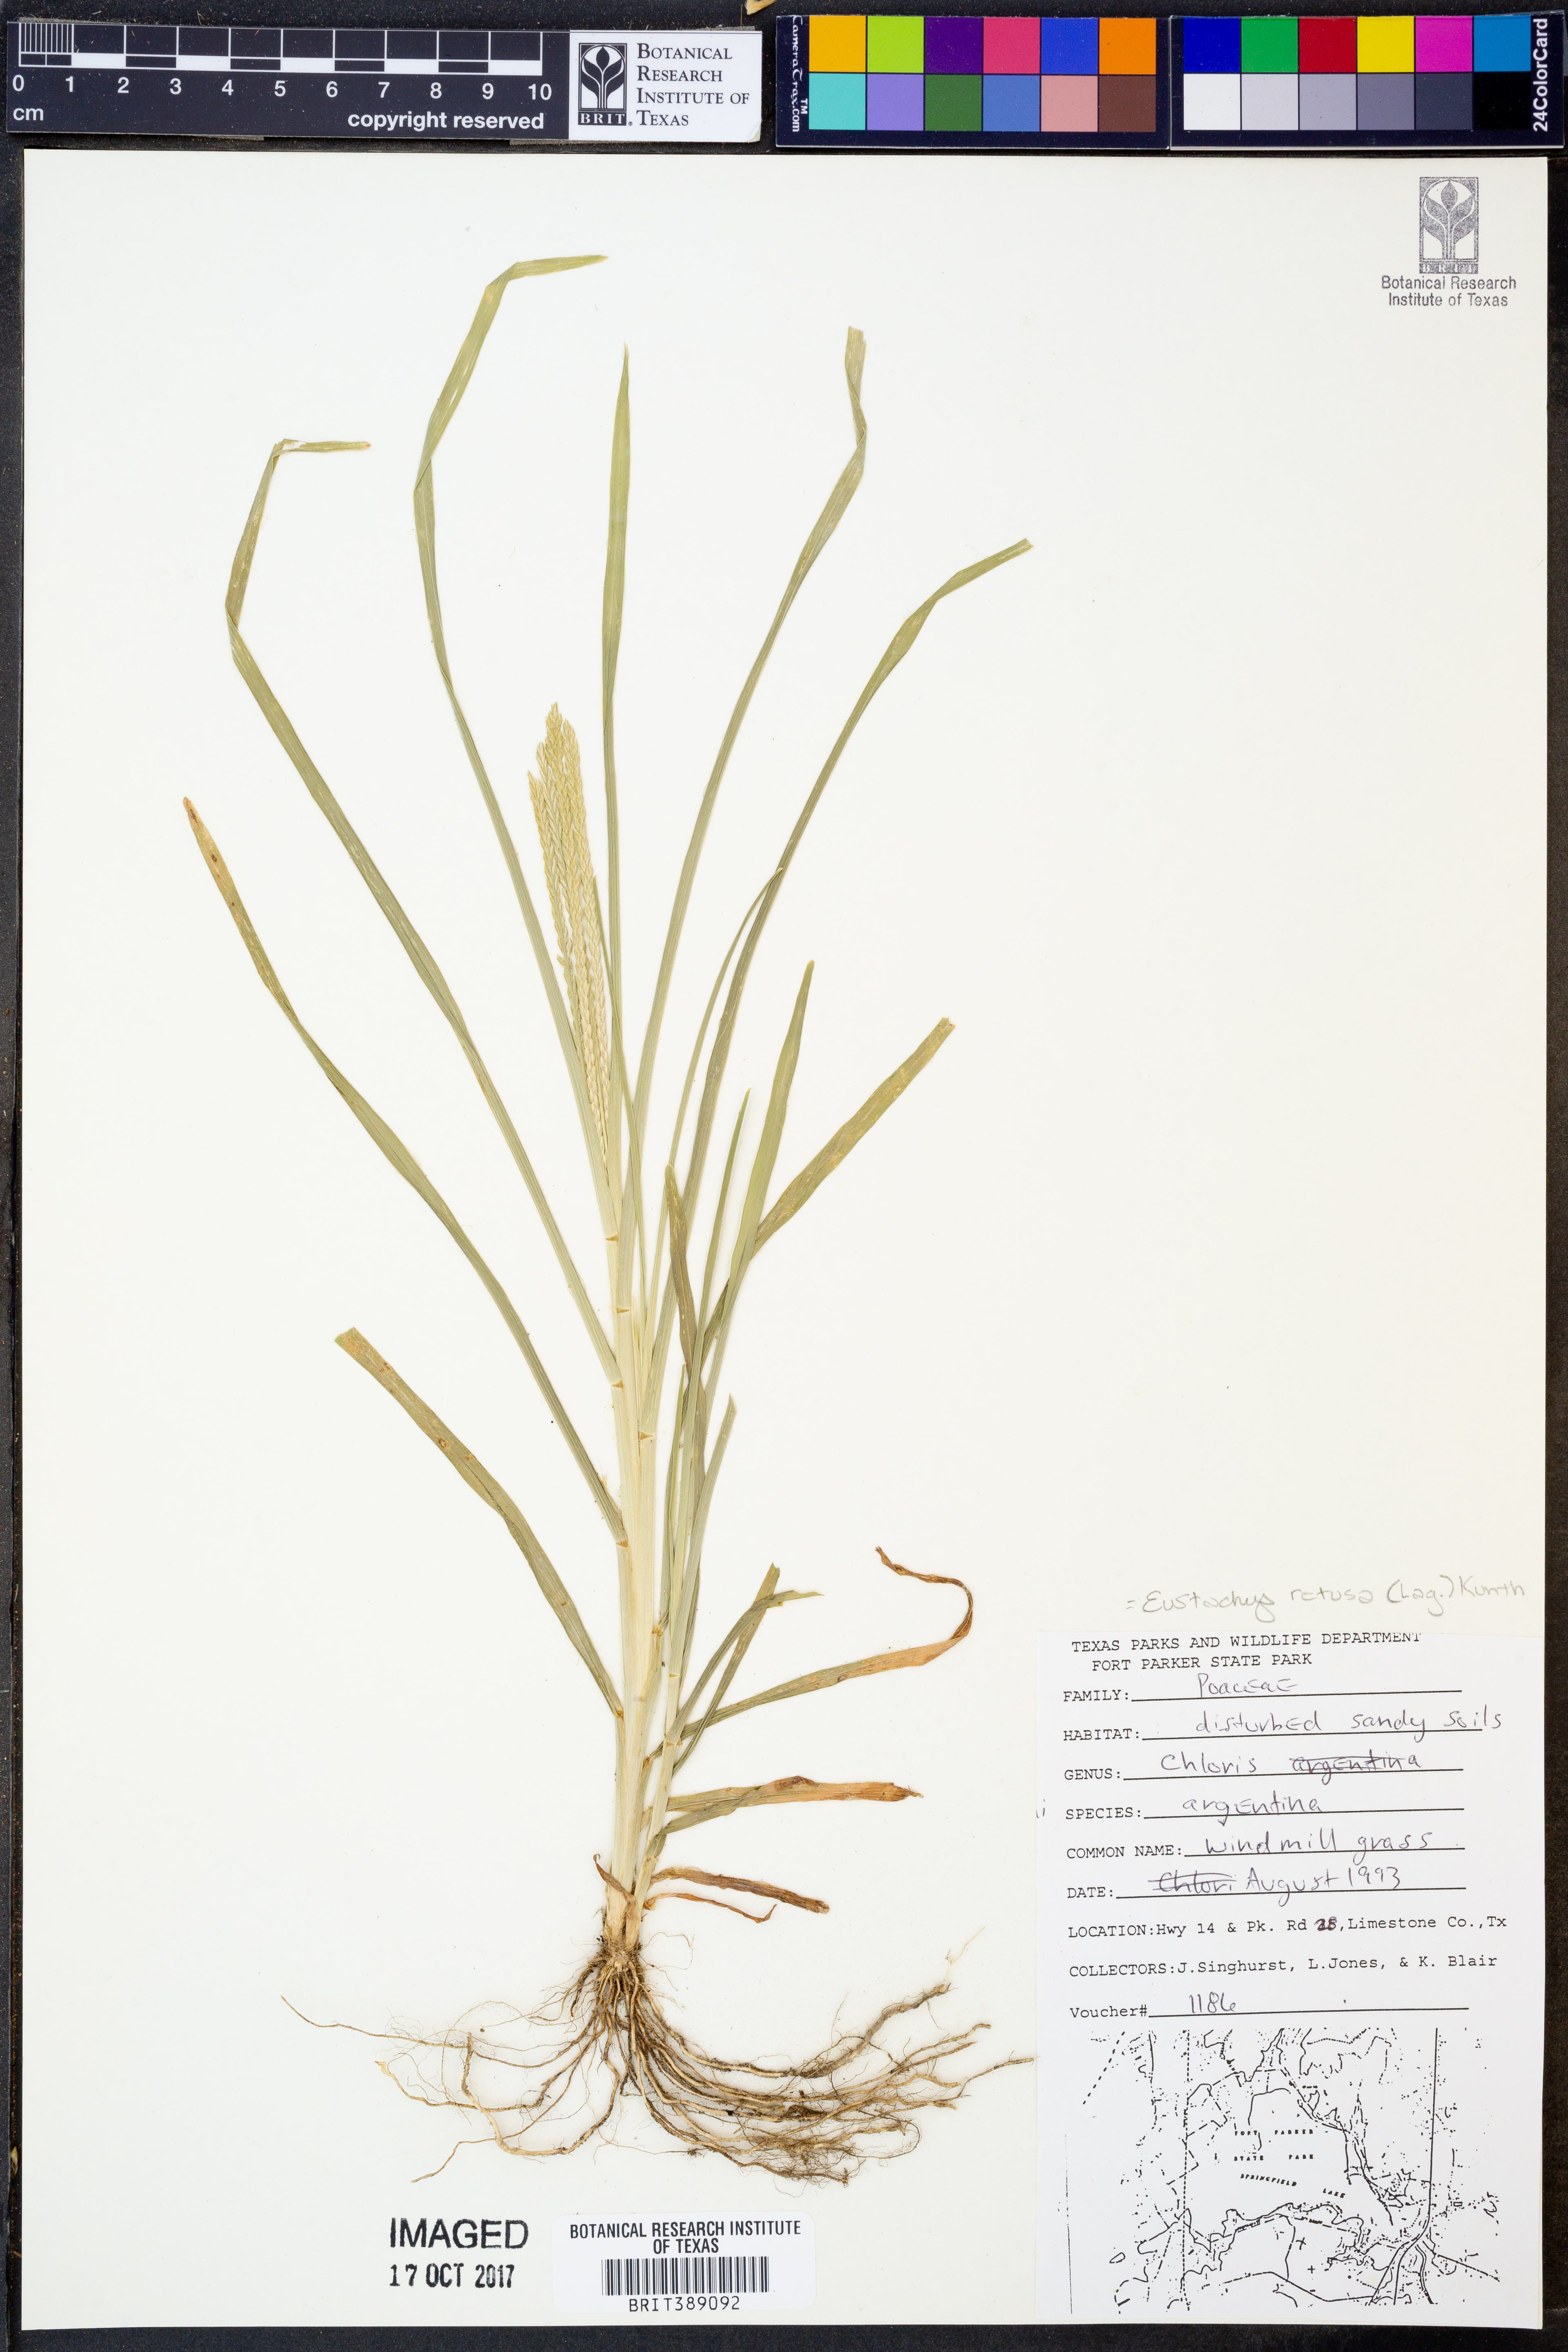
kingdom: Plantae
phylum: Tracheophyta
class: Liliopsida
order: Poales
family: Poaceae
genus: Eustachys
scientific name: Eustachys retusa
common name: Argentine fingergrass
